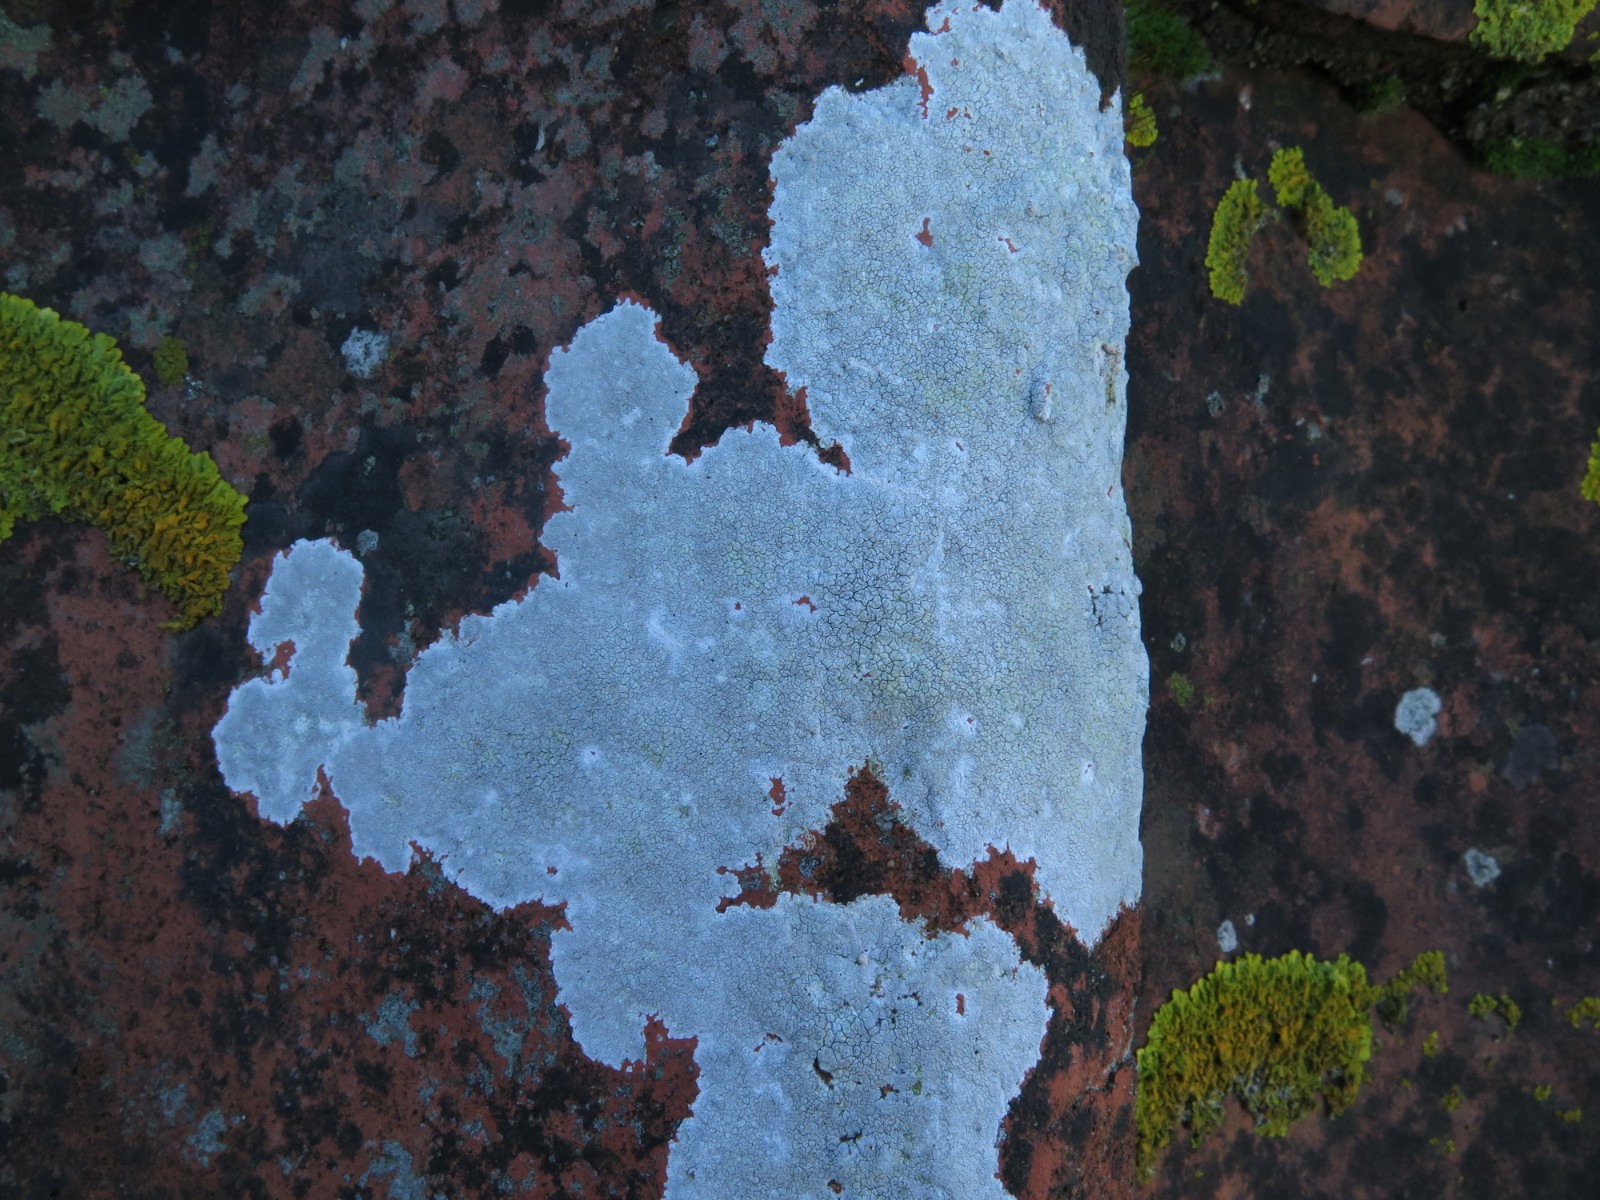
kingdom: Fungi
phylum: Ascomycota
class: Lecanoromycetes
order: Lecanorales
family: Lecanoraceae
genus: Glaucomaria
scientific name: Glaucomaria rupicola
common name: stengærde-kantskivelav
